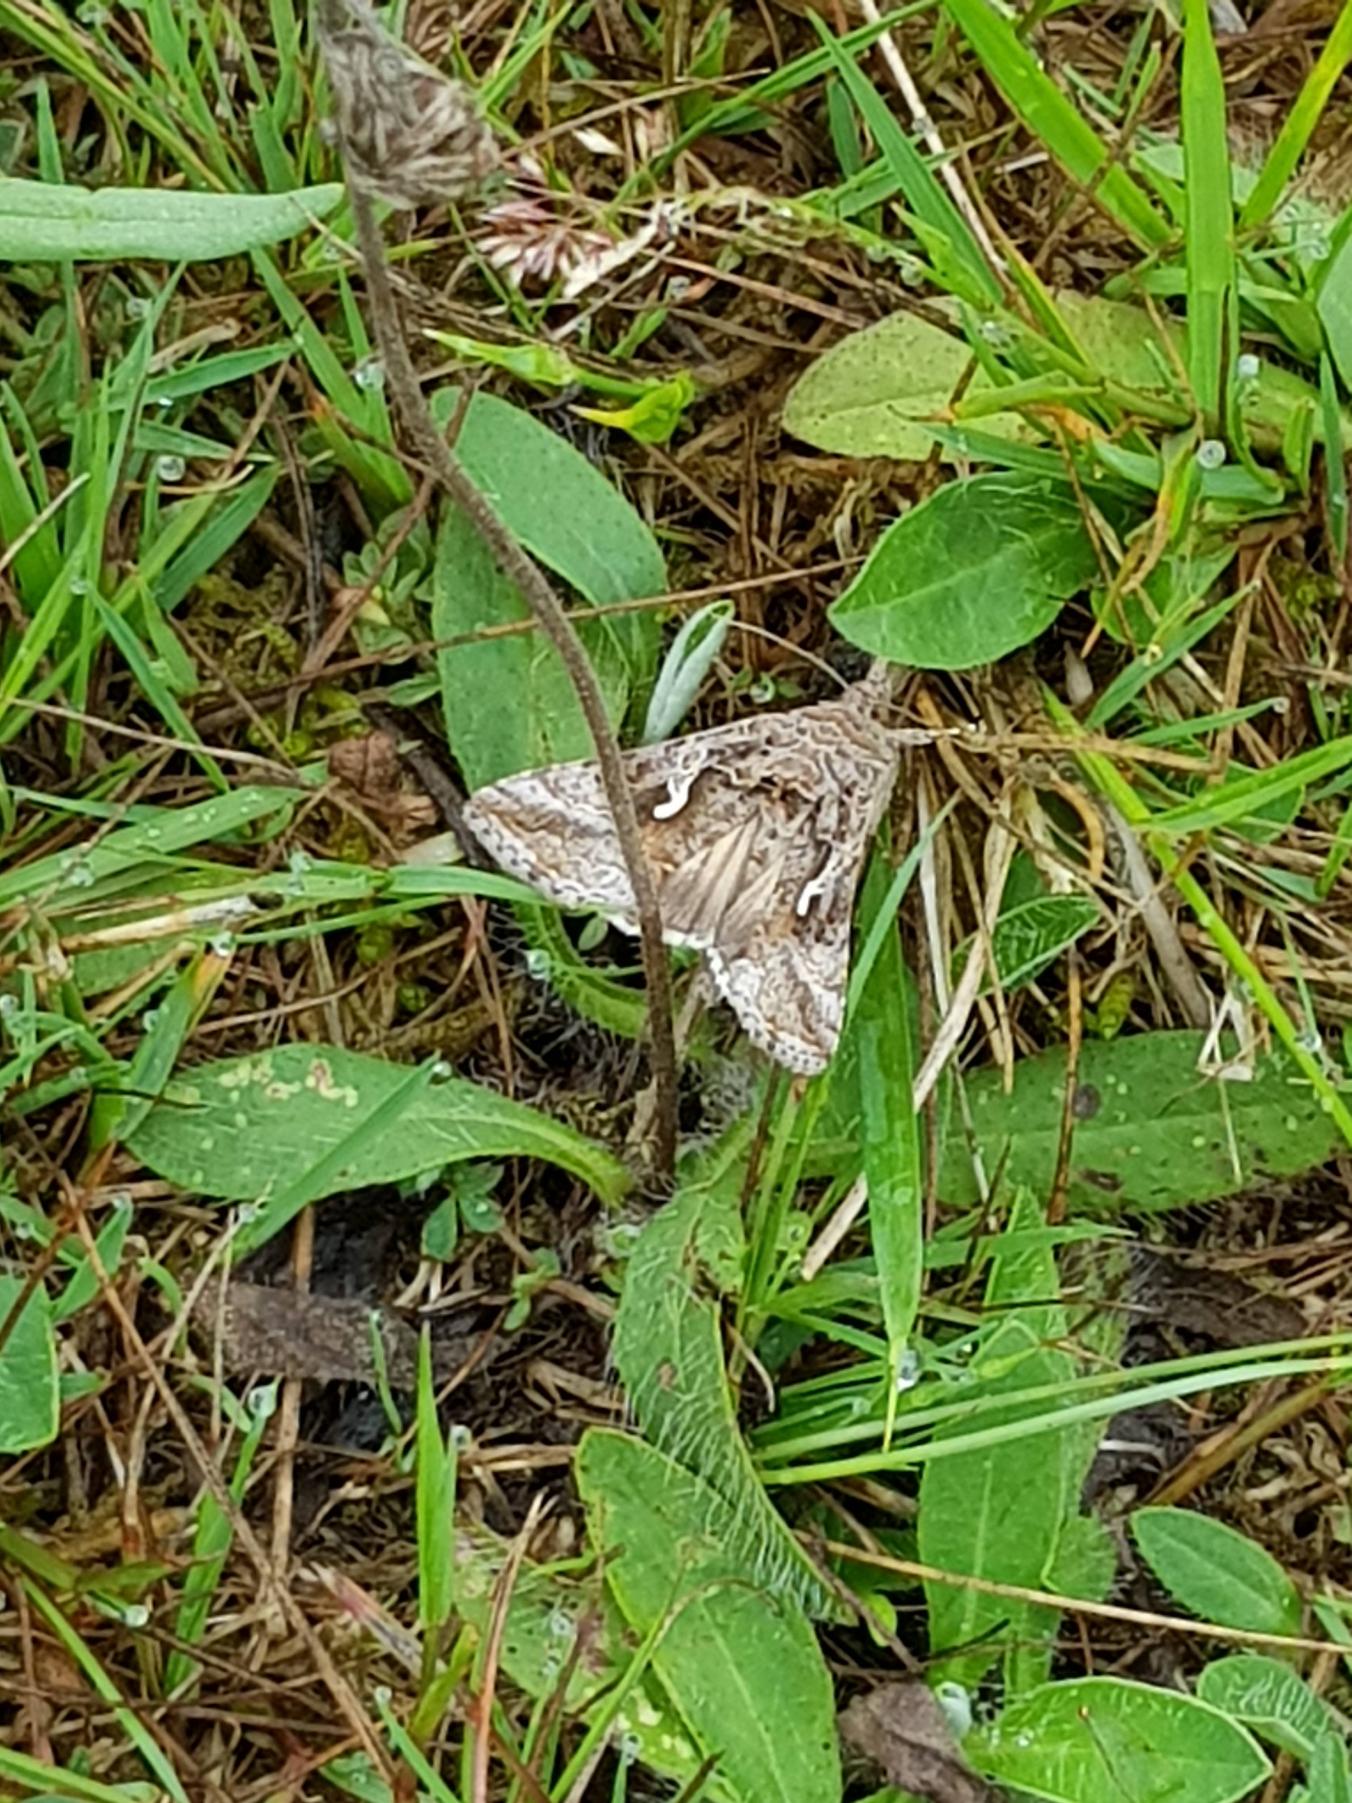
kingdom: Animalia
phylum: Arthropoda
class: Insecta
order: Lepidoptera
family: Noctuidae
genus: Autographa
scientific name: Autographa gamma
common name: Gammaugle
